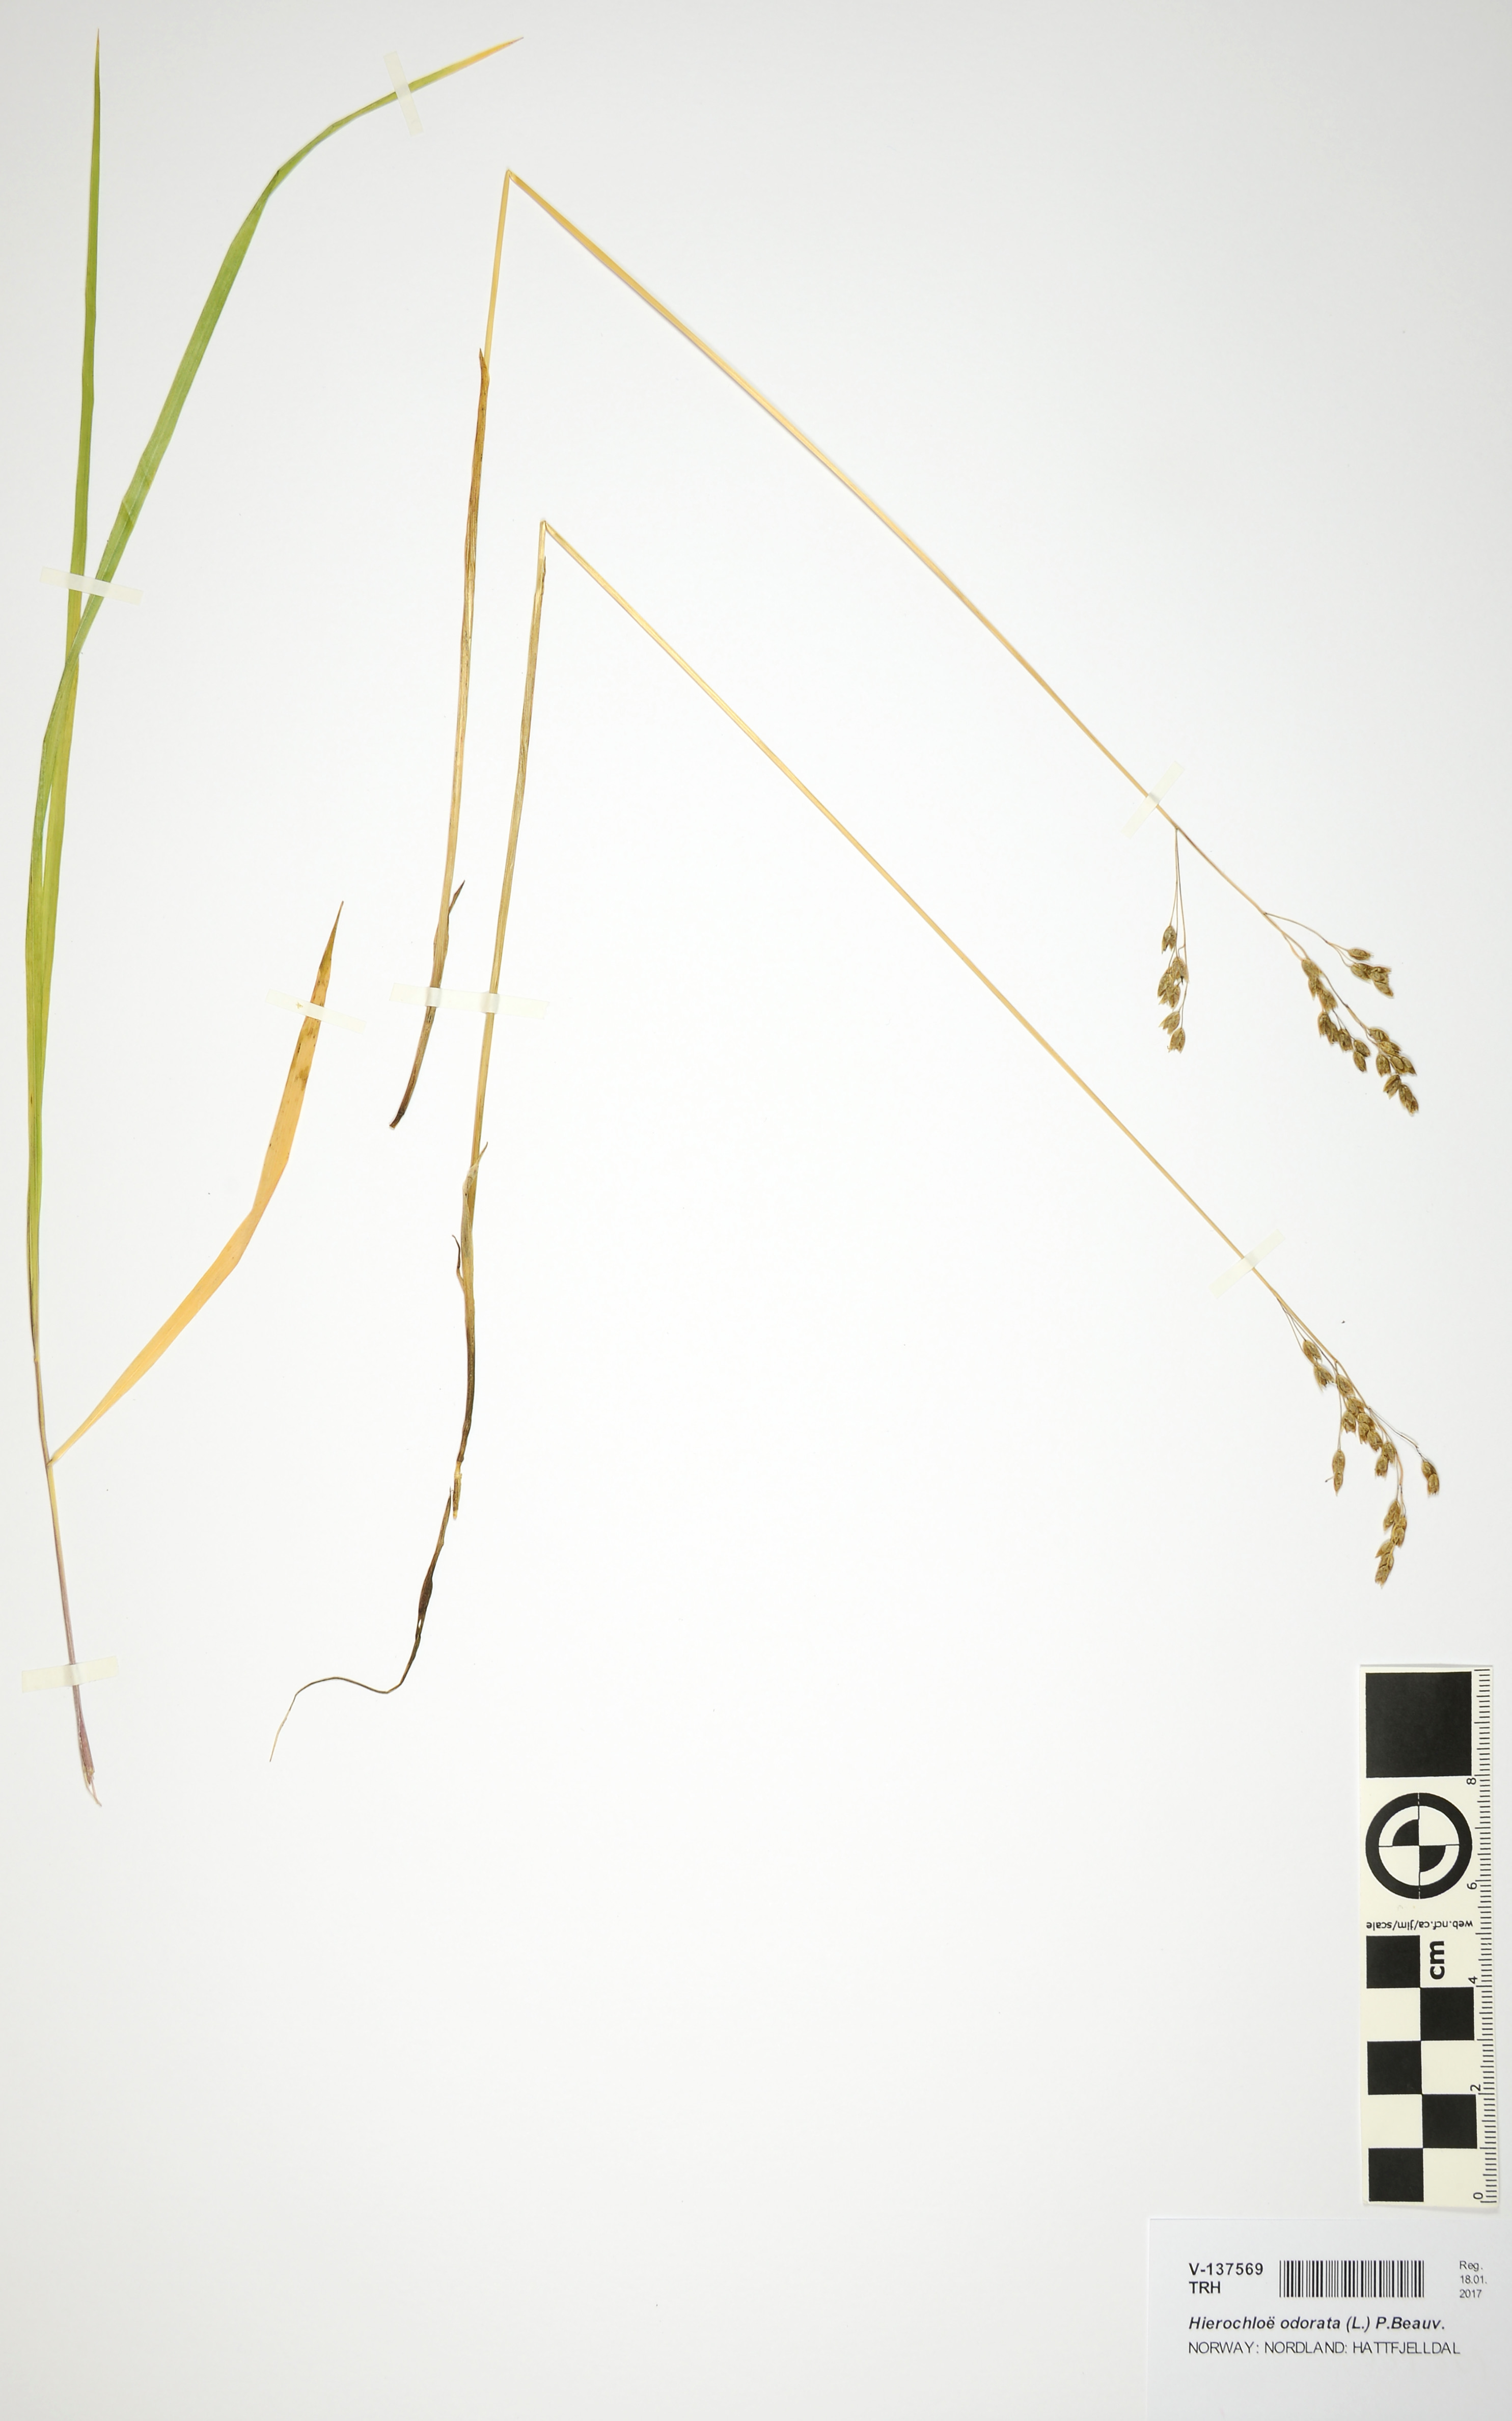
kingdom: Plantae
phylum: Tracheophyta
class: Liliopsida
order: Poales
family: Poaceae
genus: Anthoxanthum
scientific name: Anthoxanthum nitens
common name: Holy grass
